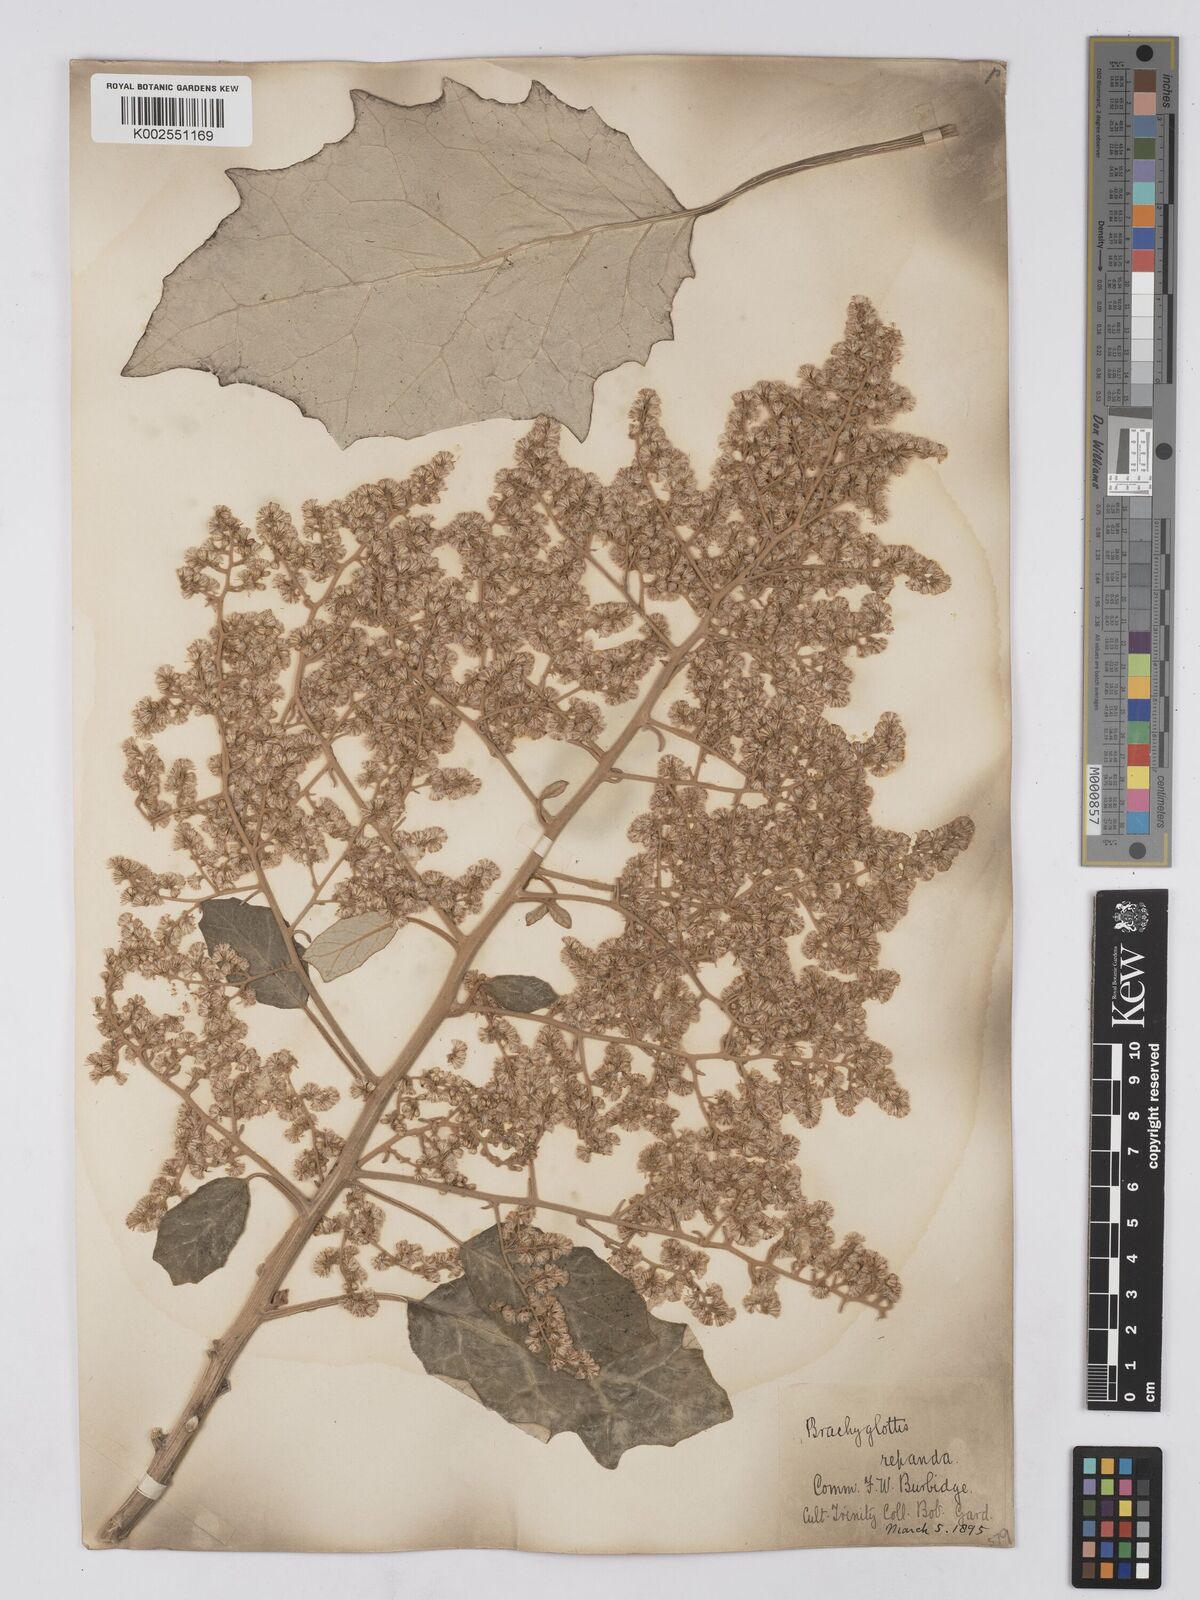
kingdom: Plantae
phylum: Tracheophyta
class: Magnoliopsida
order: Asterales
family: Asteraceae
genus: Brachyglottis
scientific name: Brachyglottis repanda
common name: Hedge ragwort
